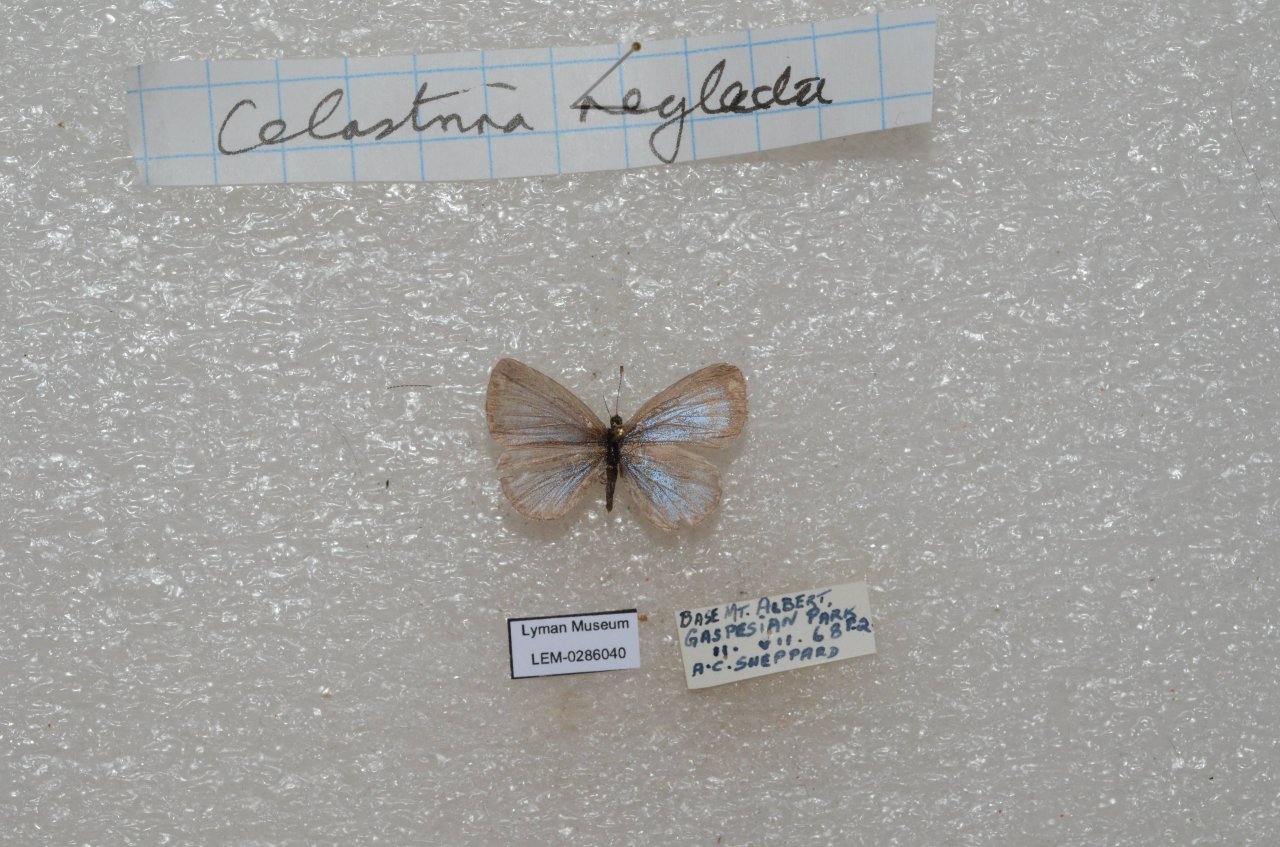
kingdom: Animalia
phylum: Arthropoda
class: Insecta
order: Lepidoptera
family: Lycaenidae
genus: Celastrina
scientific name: Celastrina lucia
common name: Northern Spring Azure
